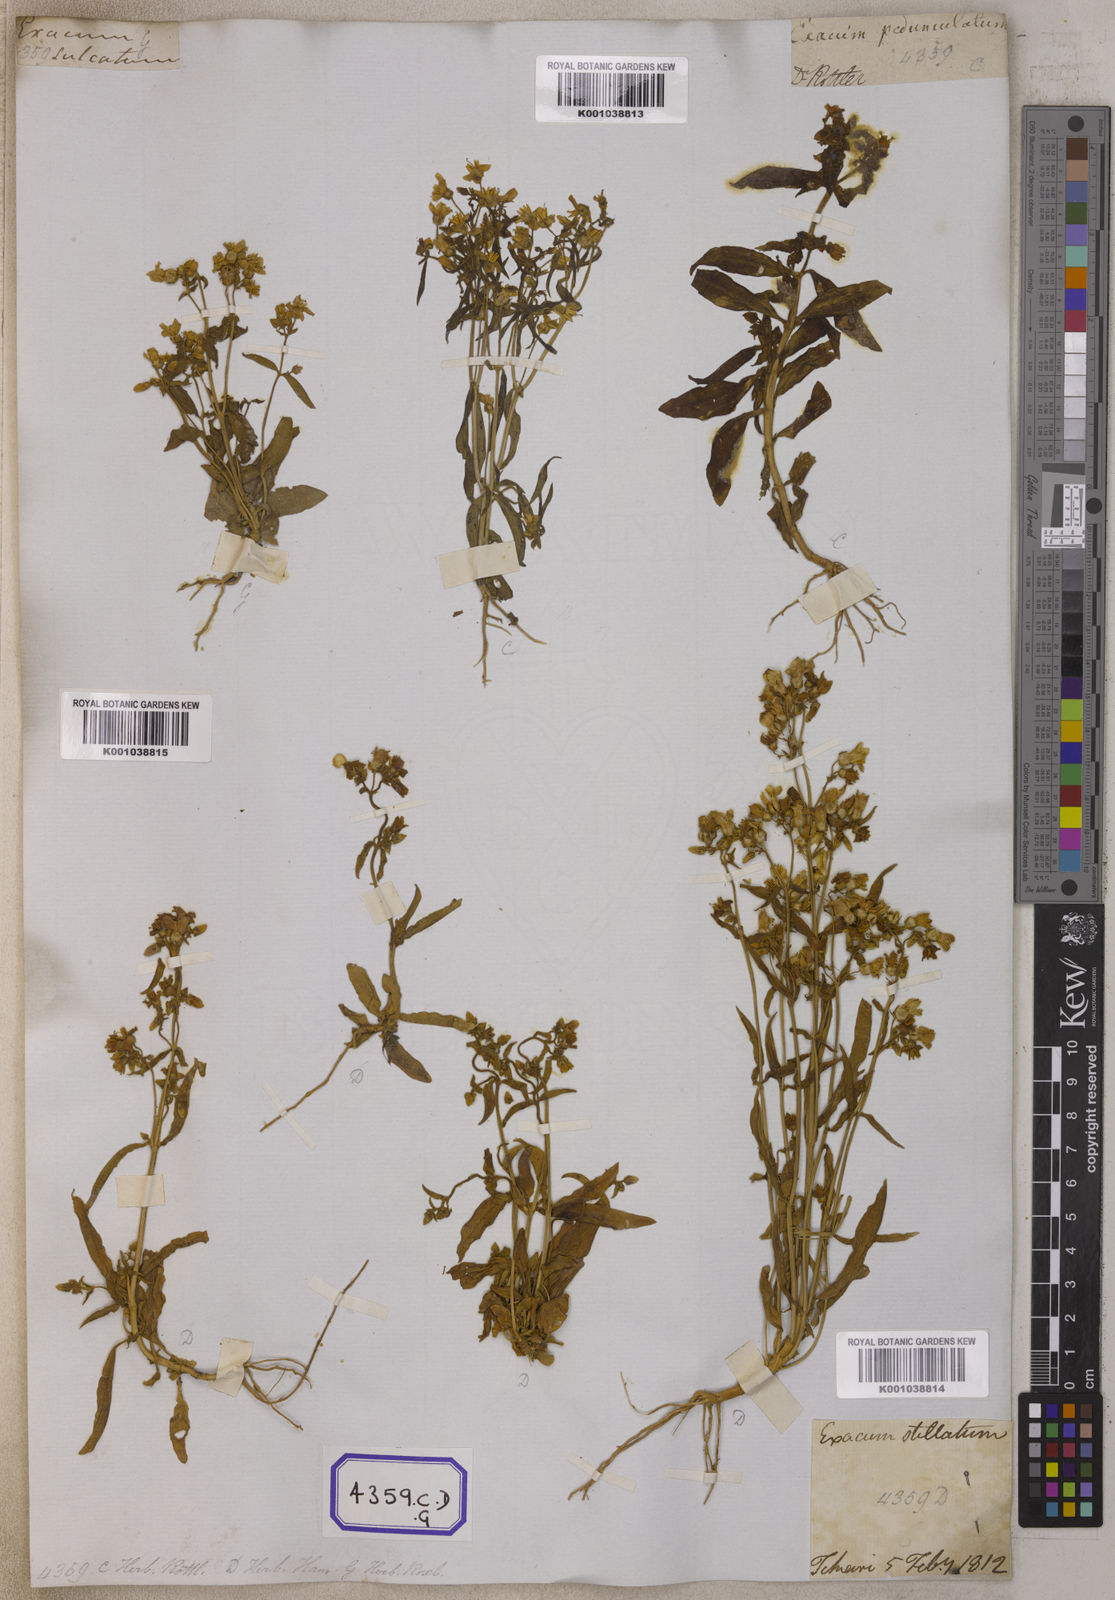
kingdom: Plantae
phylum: Tracheophyta
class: Magnoliopsida
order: Gentianales
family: Gentianaceae
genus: Exacum
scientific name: Exacum pedunculatum
